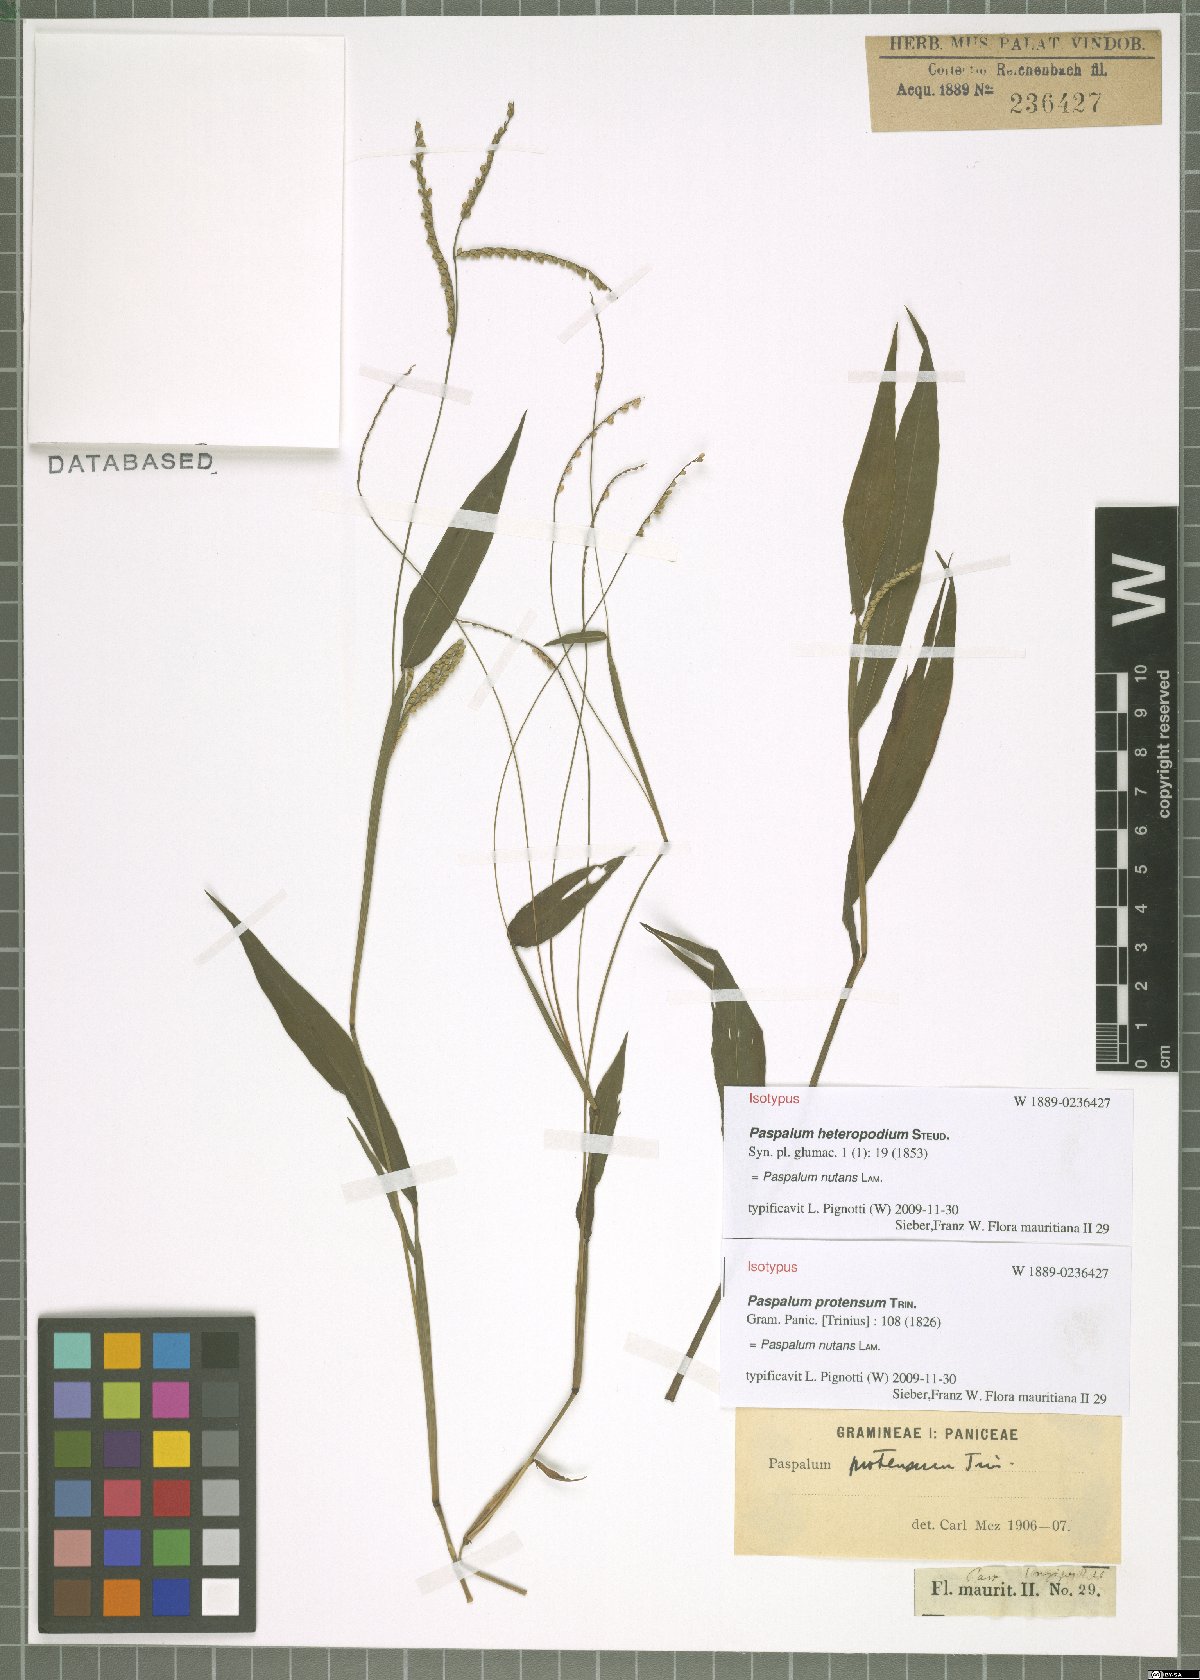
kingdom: Plantae
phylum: Tracheophyta
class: Liliopsida
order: Poales
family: Poaceae
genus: Paspalum
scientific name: Paspalum nutans
